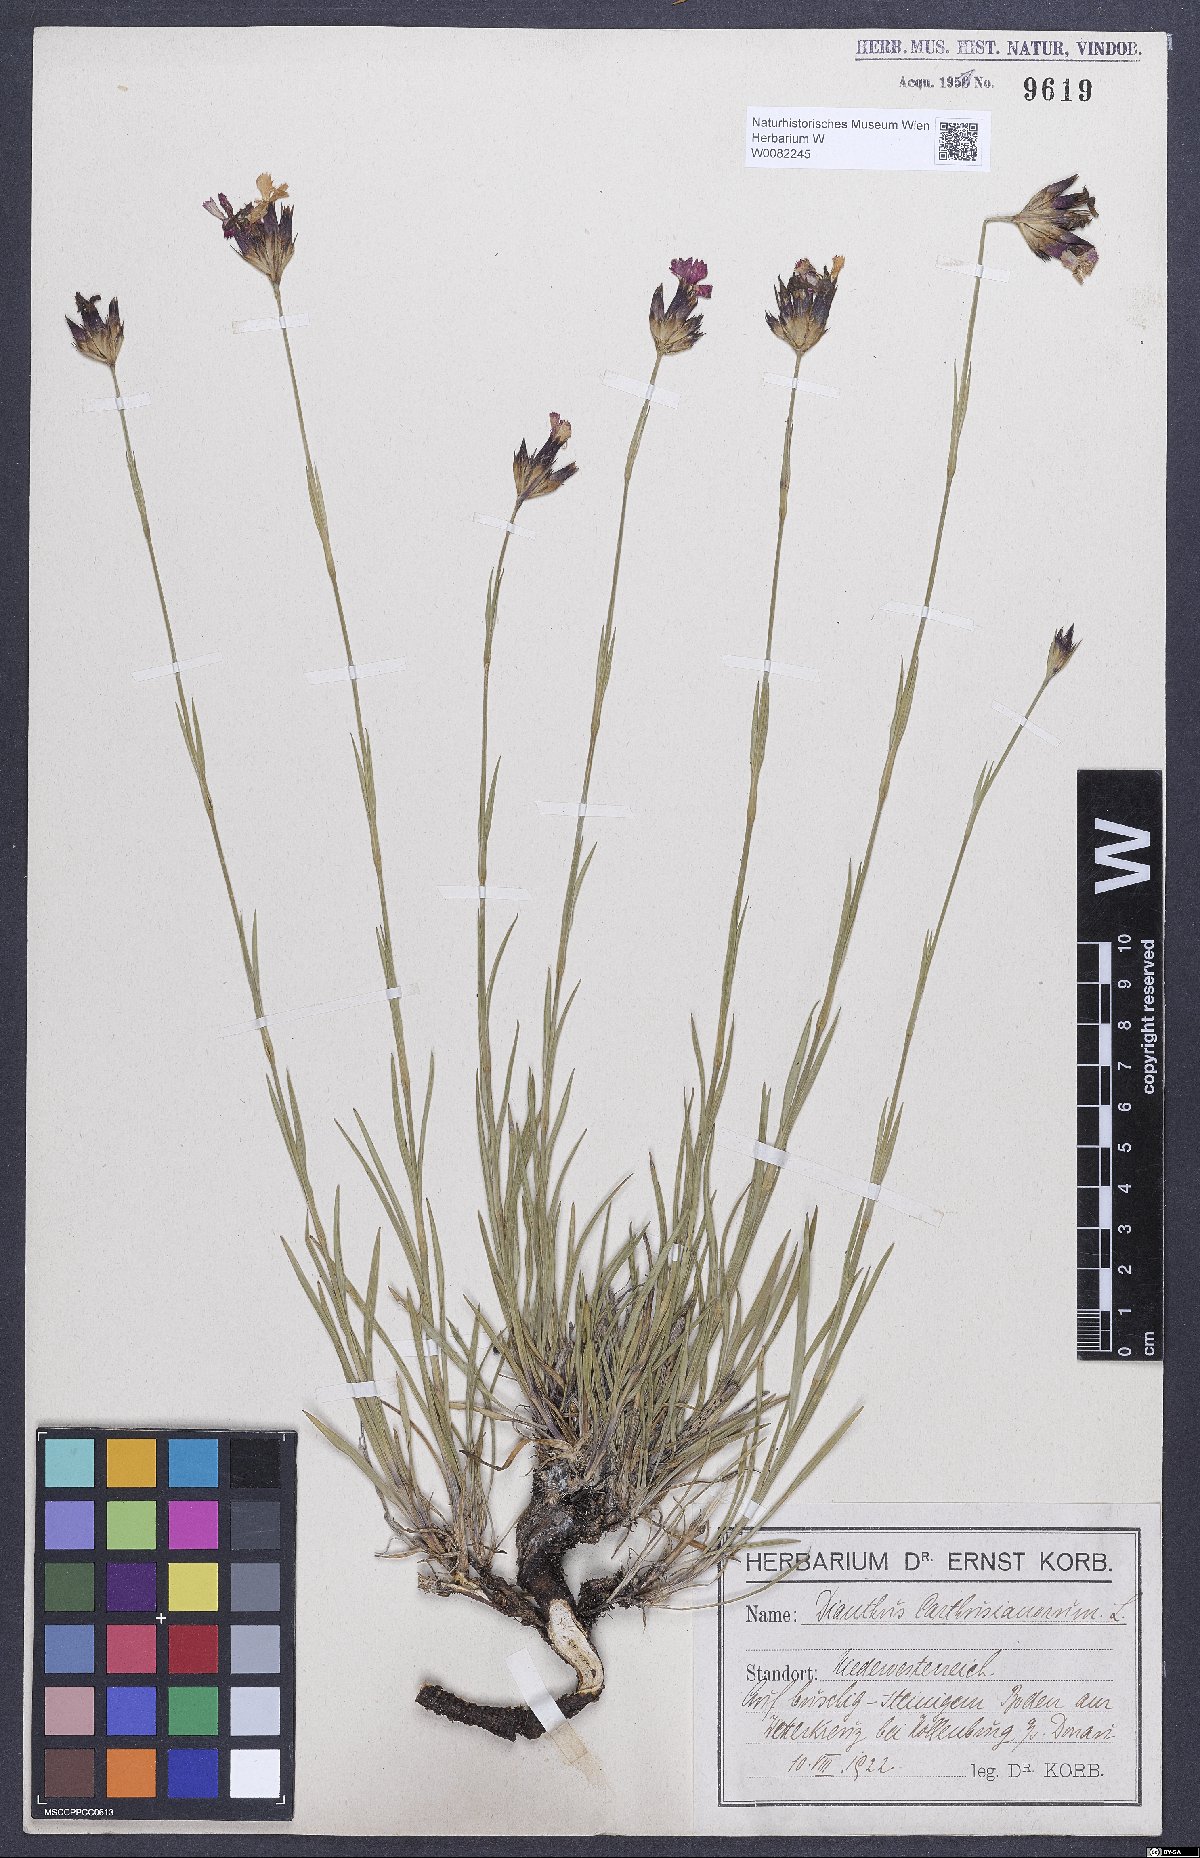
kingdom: Plantae
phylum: Tracheophyta
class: Magnoliopsida
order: Caryophyllales
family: Caryophyllaceae
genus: Dianthus
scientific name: Dianthus carthusianorum
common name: Carthusian pink
